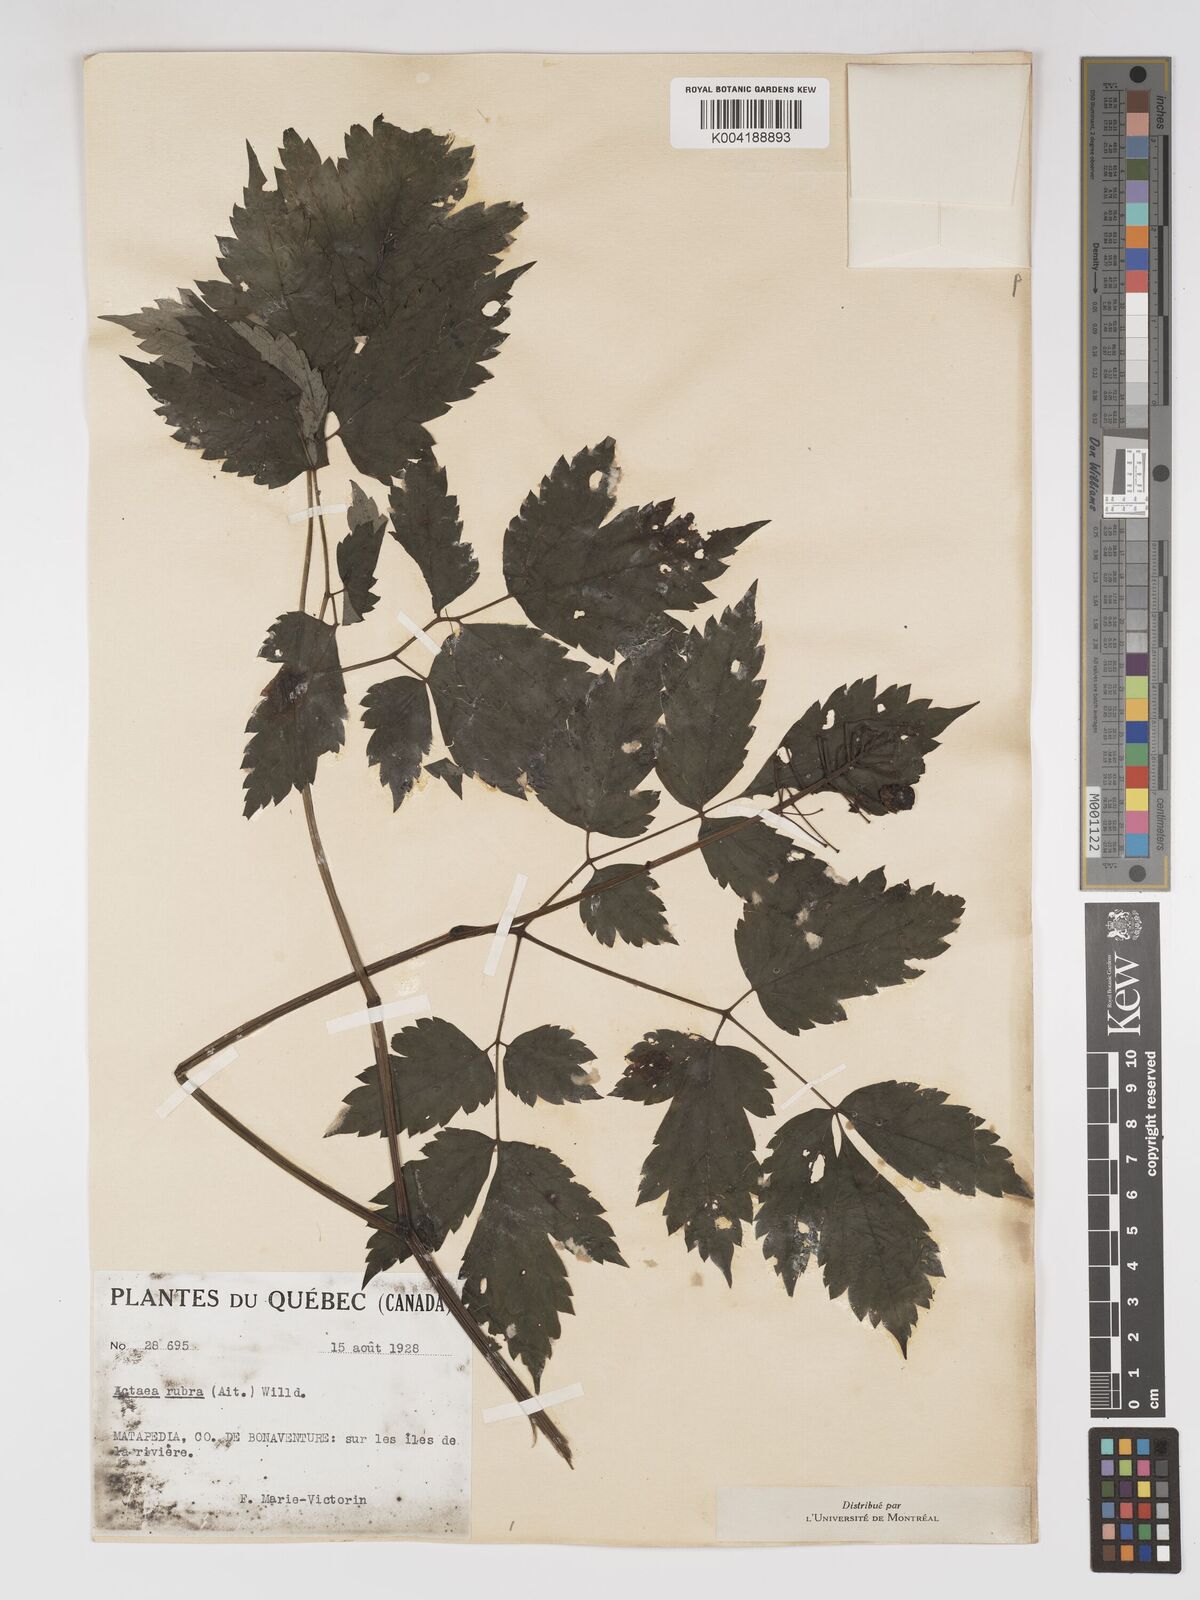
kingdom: Plantae
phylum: Tracheophyta
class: Magnoliopsida
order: Ranunculales
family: Ranunculaceae
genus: Actaea
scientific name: Actaea spicata
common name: Baneberry
